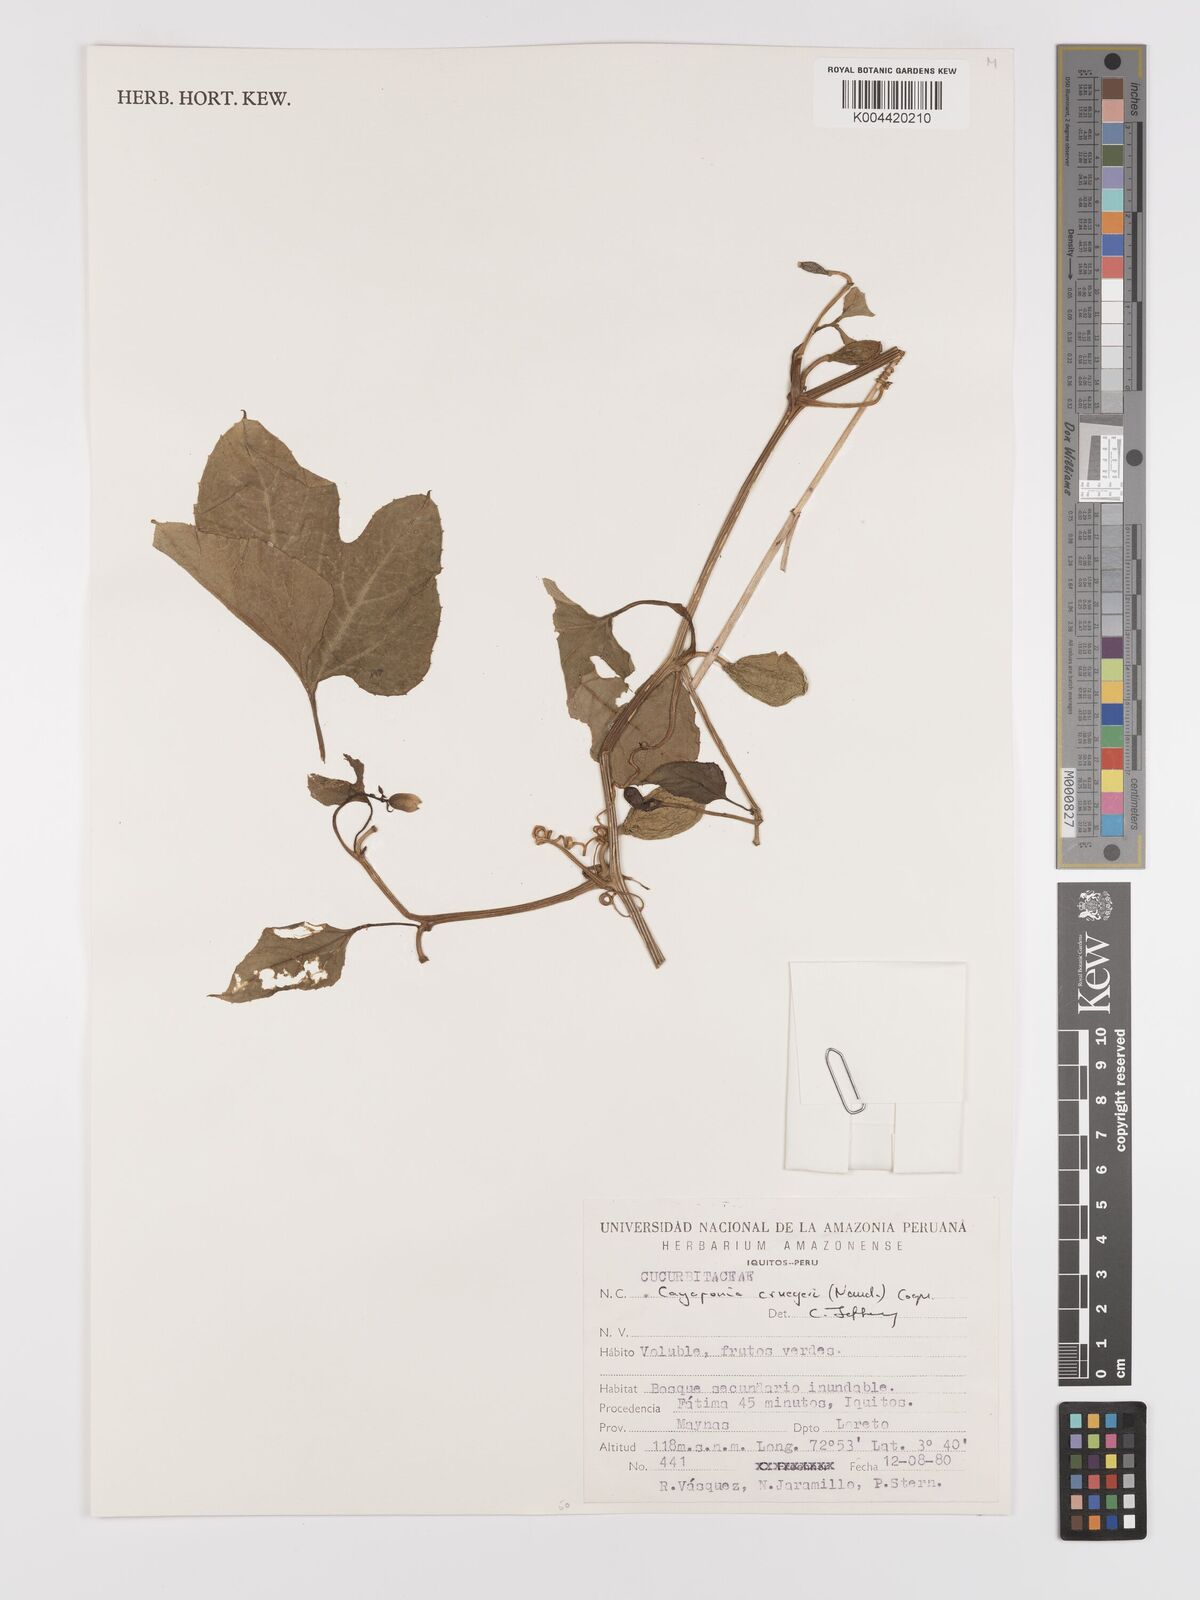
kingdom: Plantae
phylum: Tracheophyta
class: Magnoliopsida
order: Cucurbitales
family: Cucurbitaceae
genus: Cayaponia
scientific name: Cayaponia cruegeri
